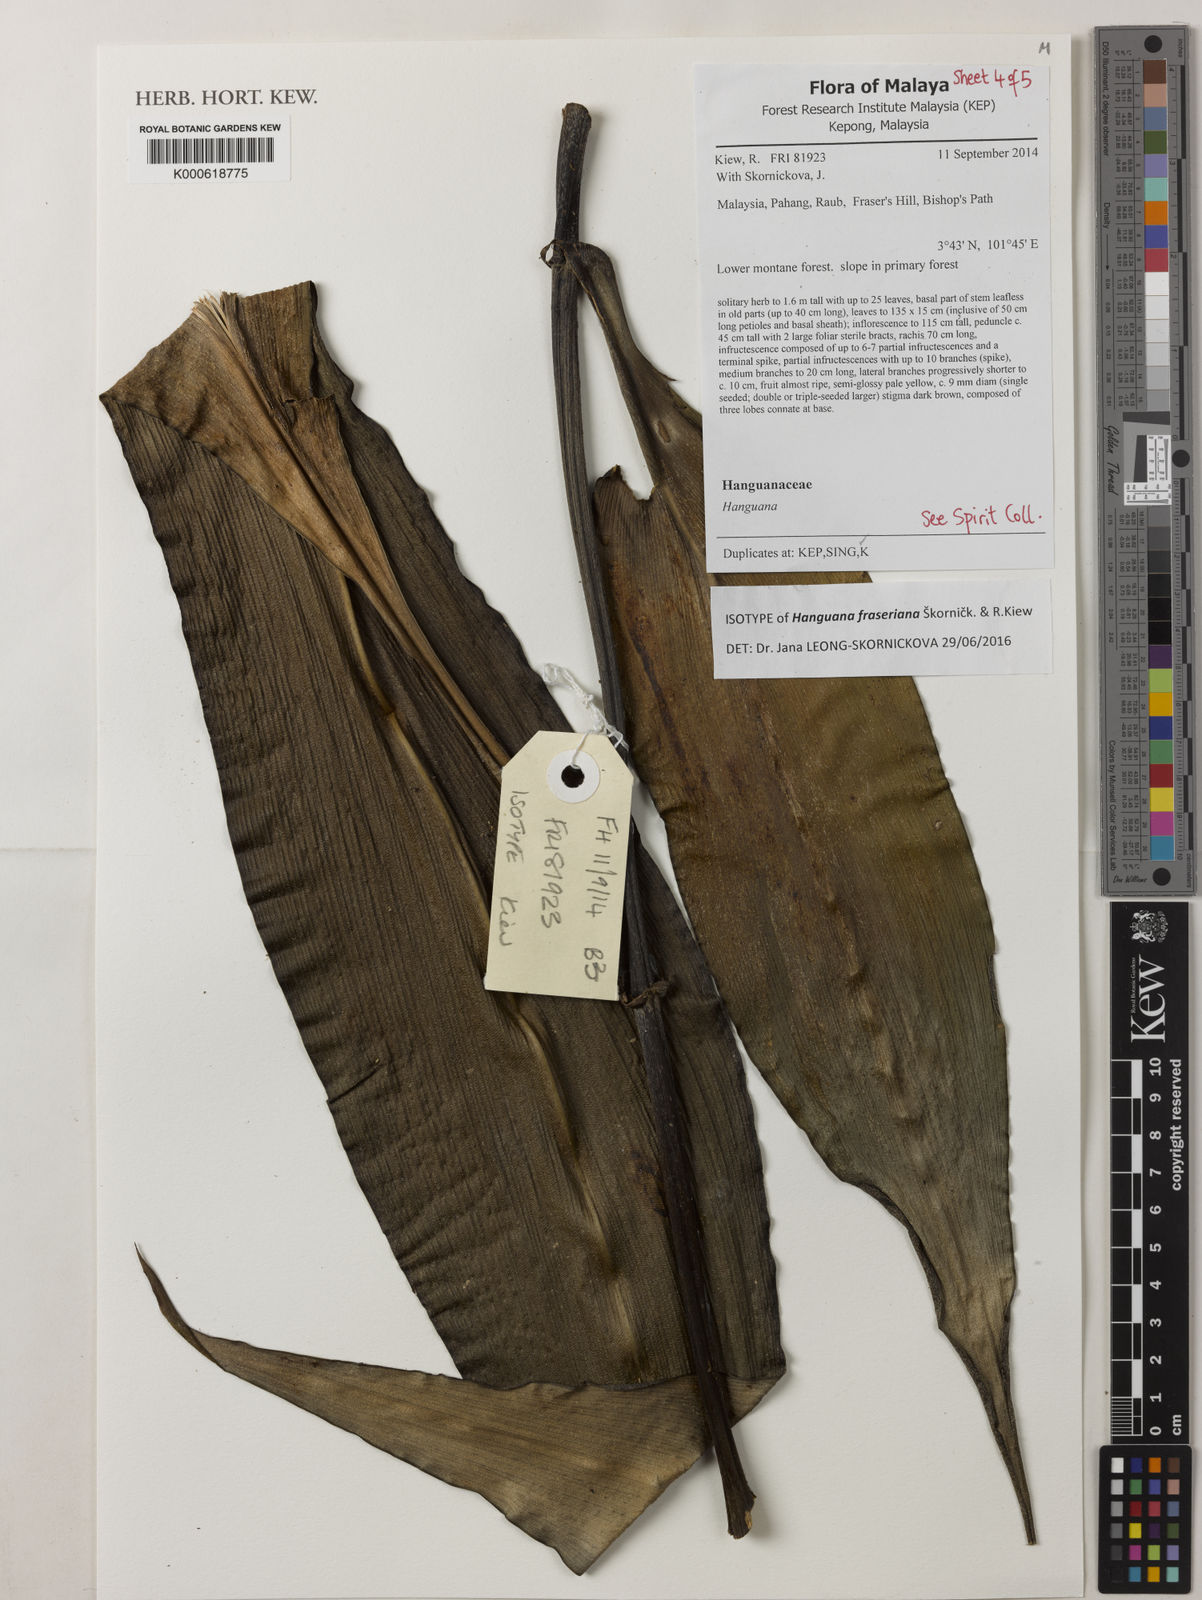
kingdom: Plantae
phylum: Tracheophyta
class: Liliopsida
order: Commelinales
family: Hanguanaceae
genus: Hanguana
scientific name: Hanguana fraseriana
